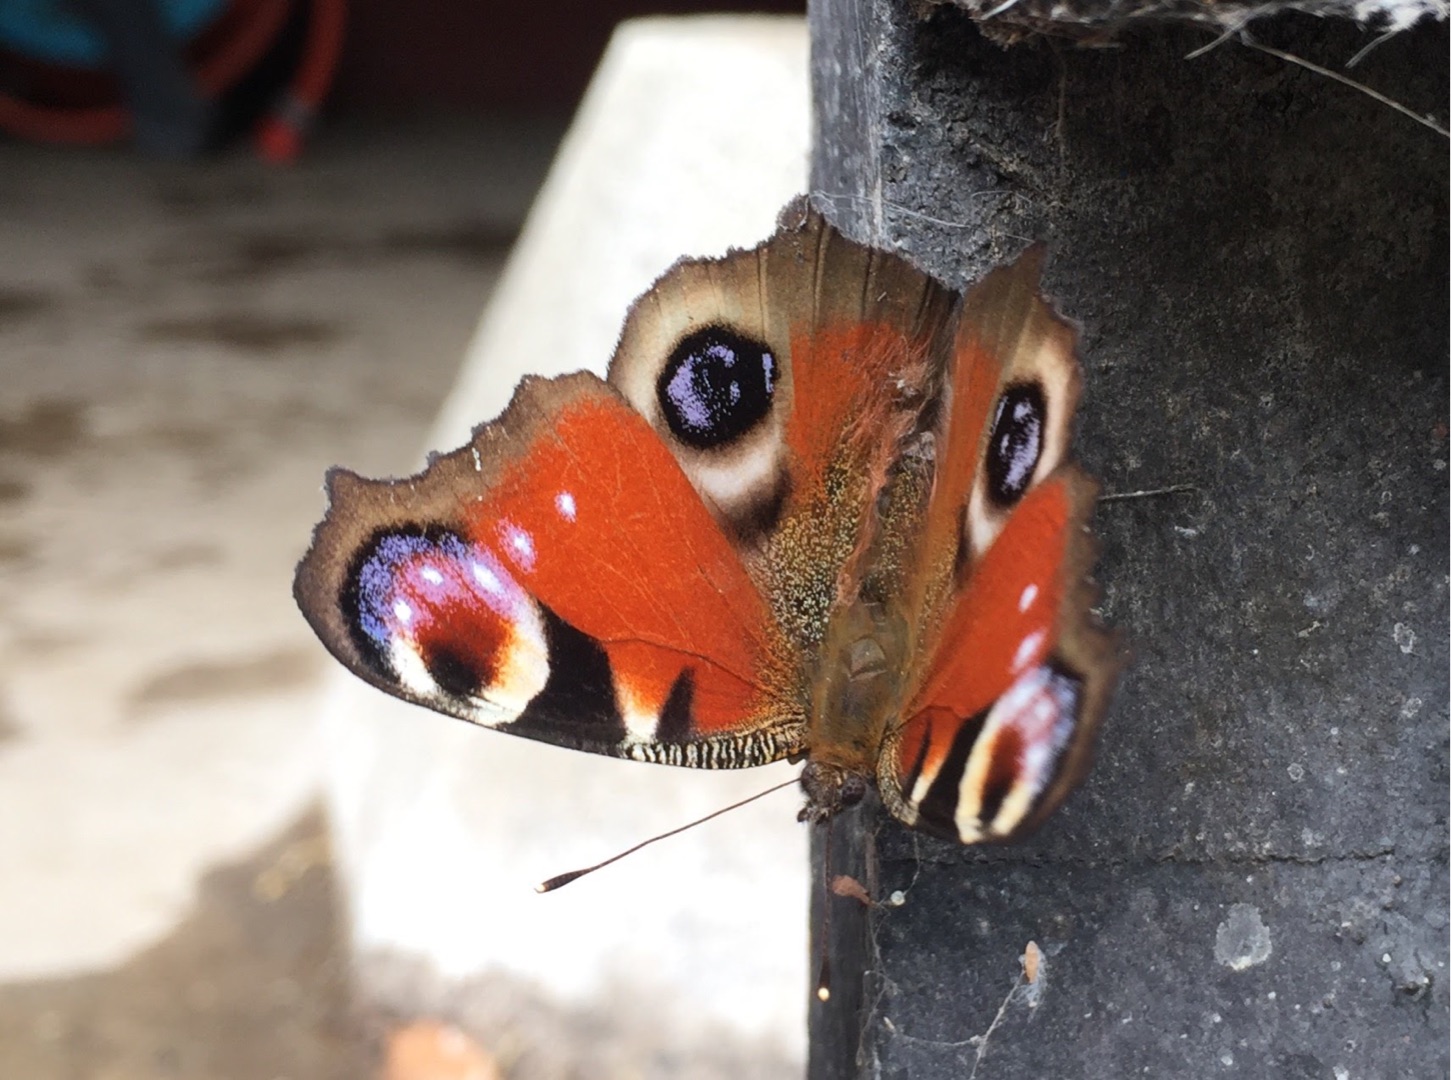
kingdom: Animalia
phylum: Arthropoda
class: Insecta
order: Lepidoptera
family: Nymphalidae
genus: Aglais
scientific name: Aglais io
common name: Dagpåfugleøje
